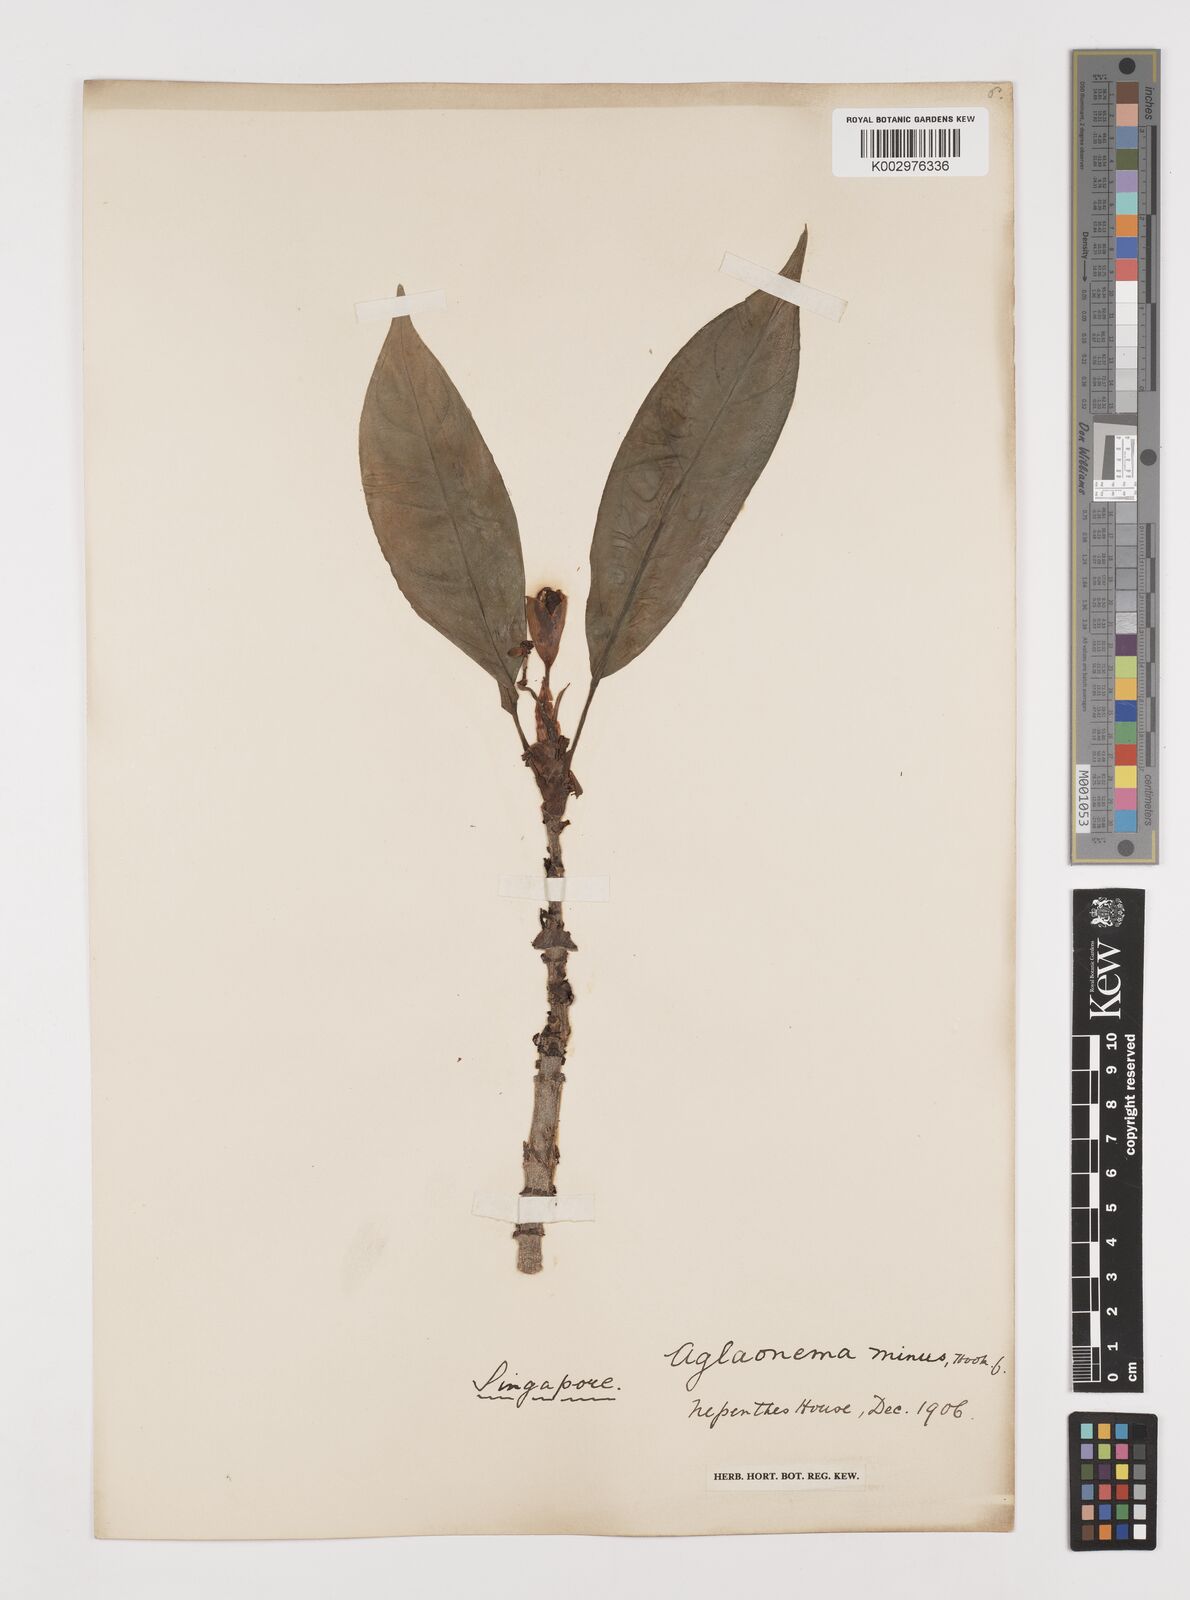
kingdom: Plantae
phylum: Tracheophyta
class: Liliopsida
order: Alismatales
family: Araceae
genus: Aglaonema
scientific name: Aglaonema nebulosum
